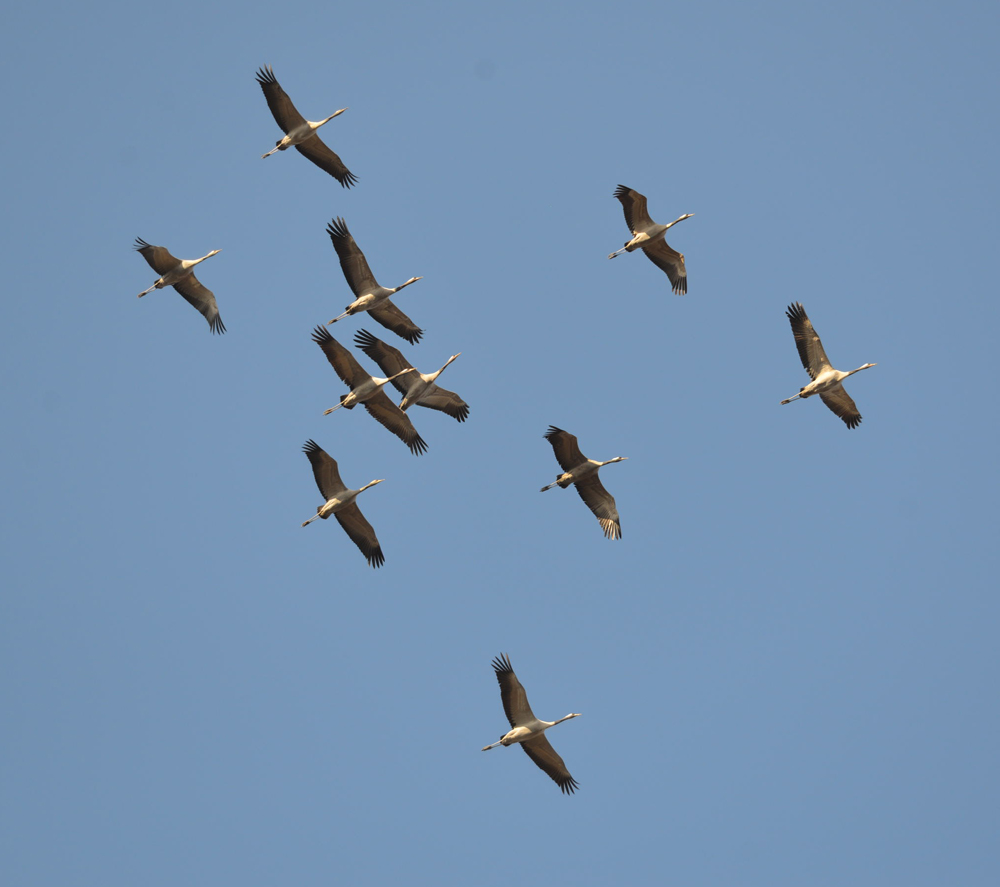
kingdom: Animalia
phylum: Chordata
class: Aves
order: Gruiformes
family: Gruidae
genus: Grus
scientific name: Grus grus
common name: Common crane
